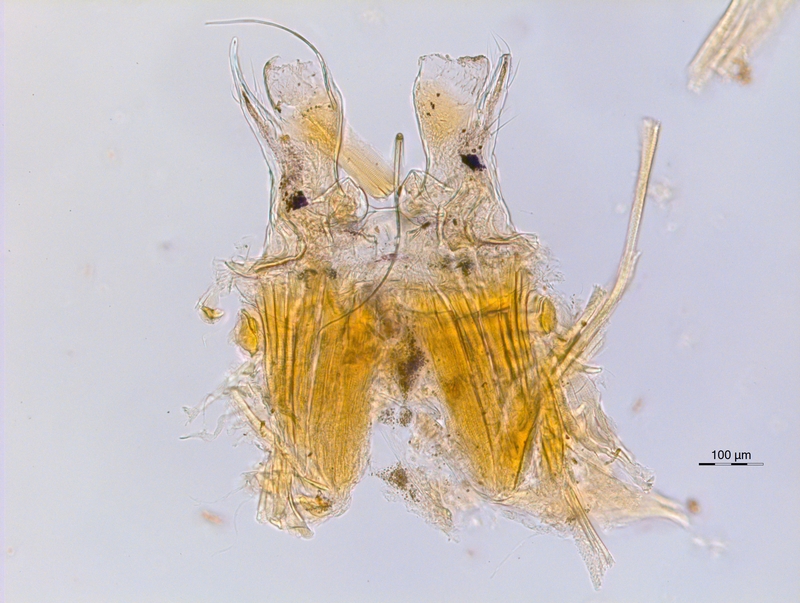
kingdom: Animalia
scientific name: Animalia
